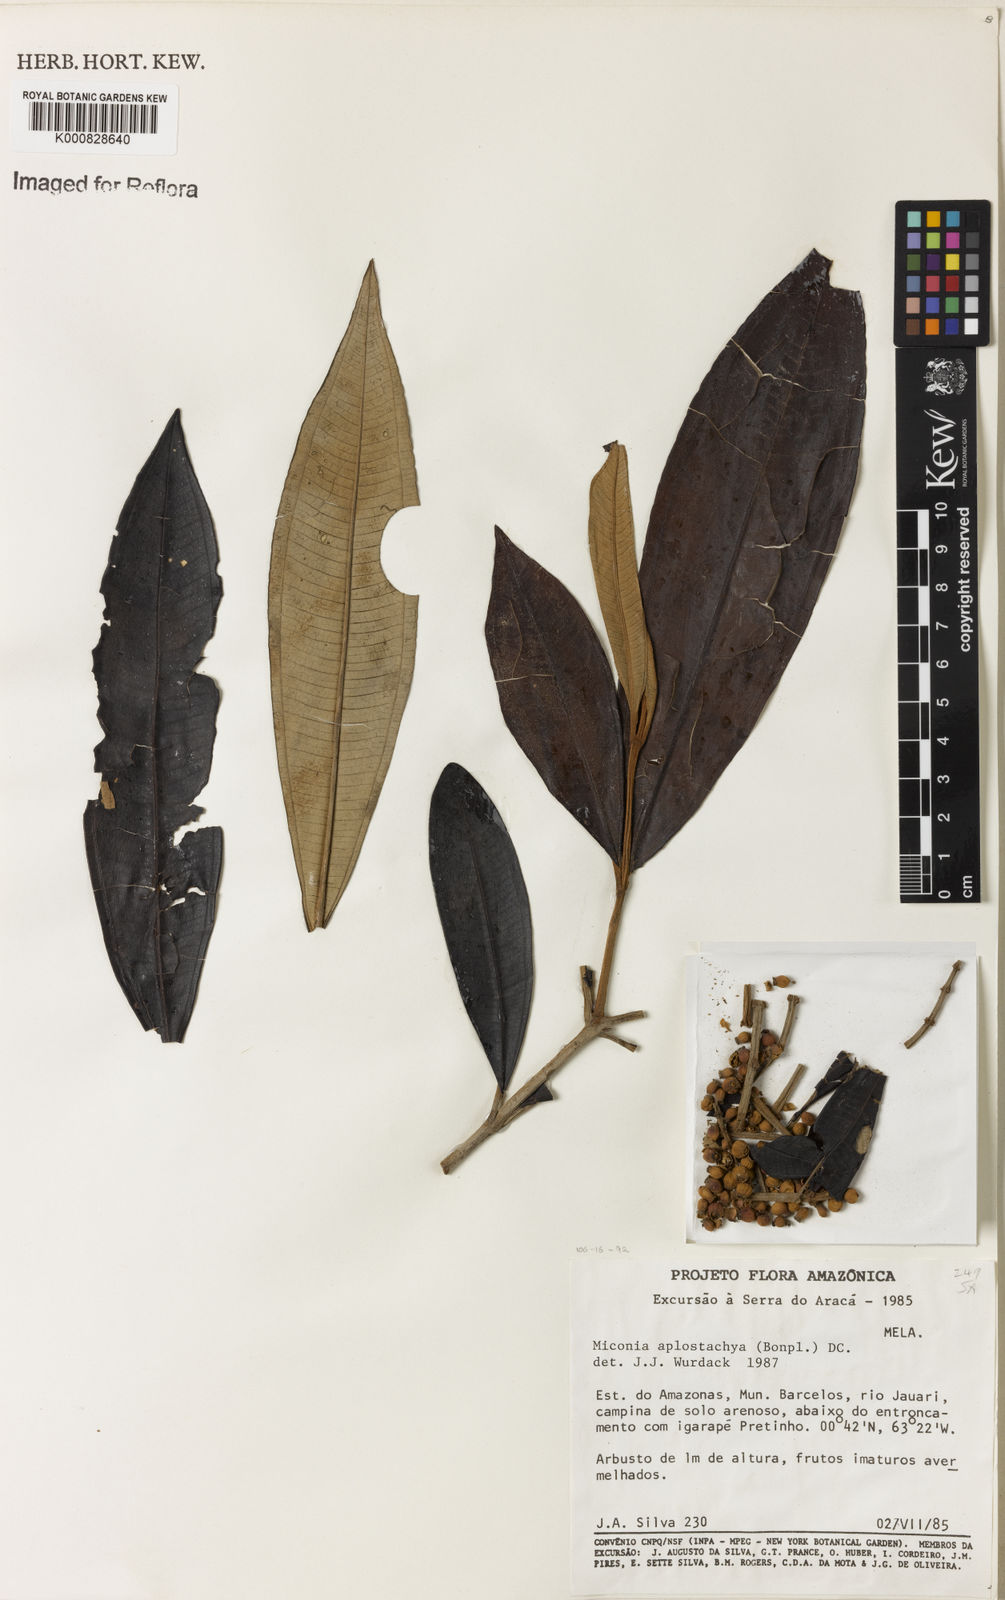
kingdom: Plantae
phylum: Tracheophyta
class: Magnoliopsida
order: Myrtales
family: Melastomataceae
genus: Miconia
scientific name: Miconia aplostachya
